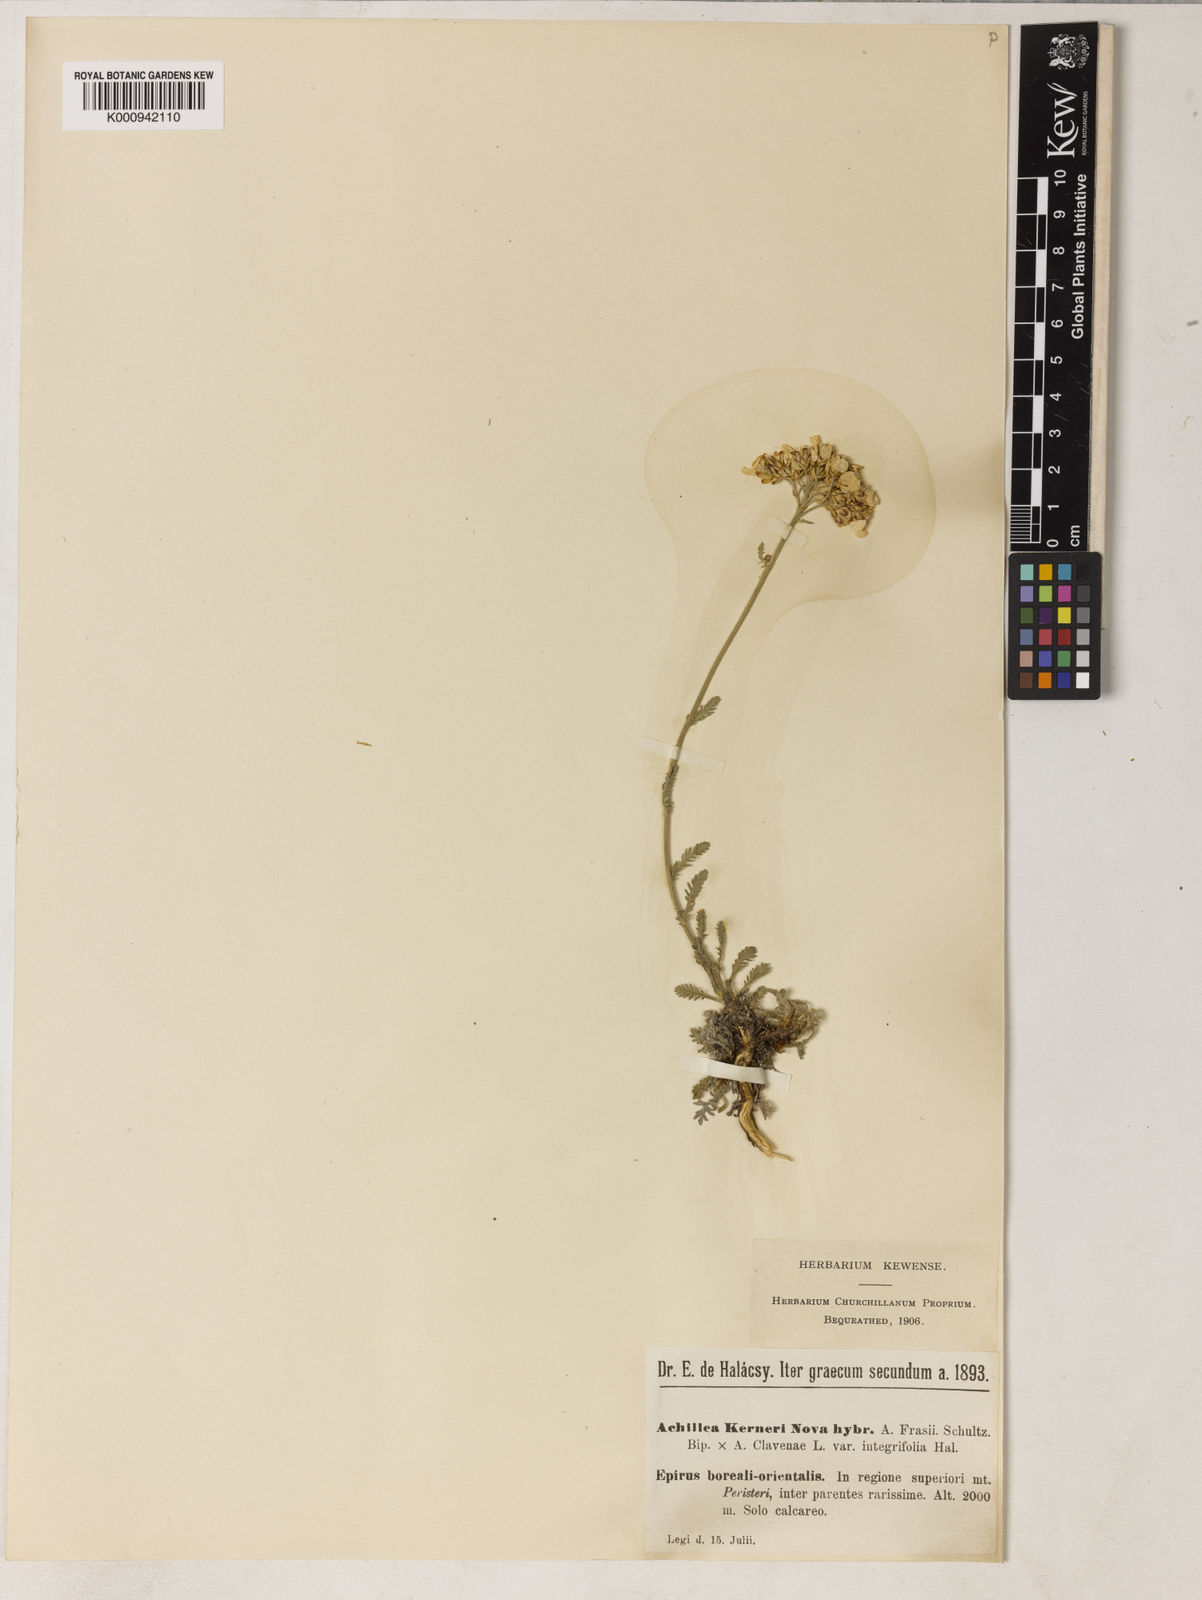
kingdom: Plantae
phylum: Tracheophyta
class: Magnoliopsida
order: Asterales
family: Asteraceae
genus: Achillea
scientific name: Achillea kerneri
